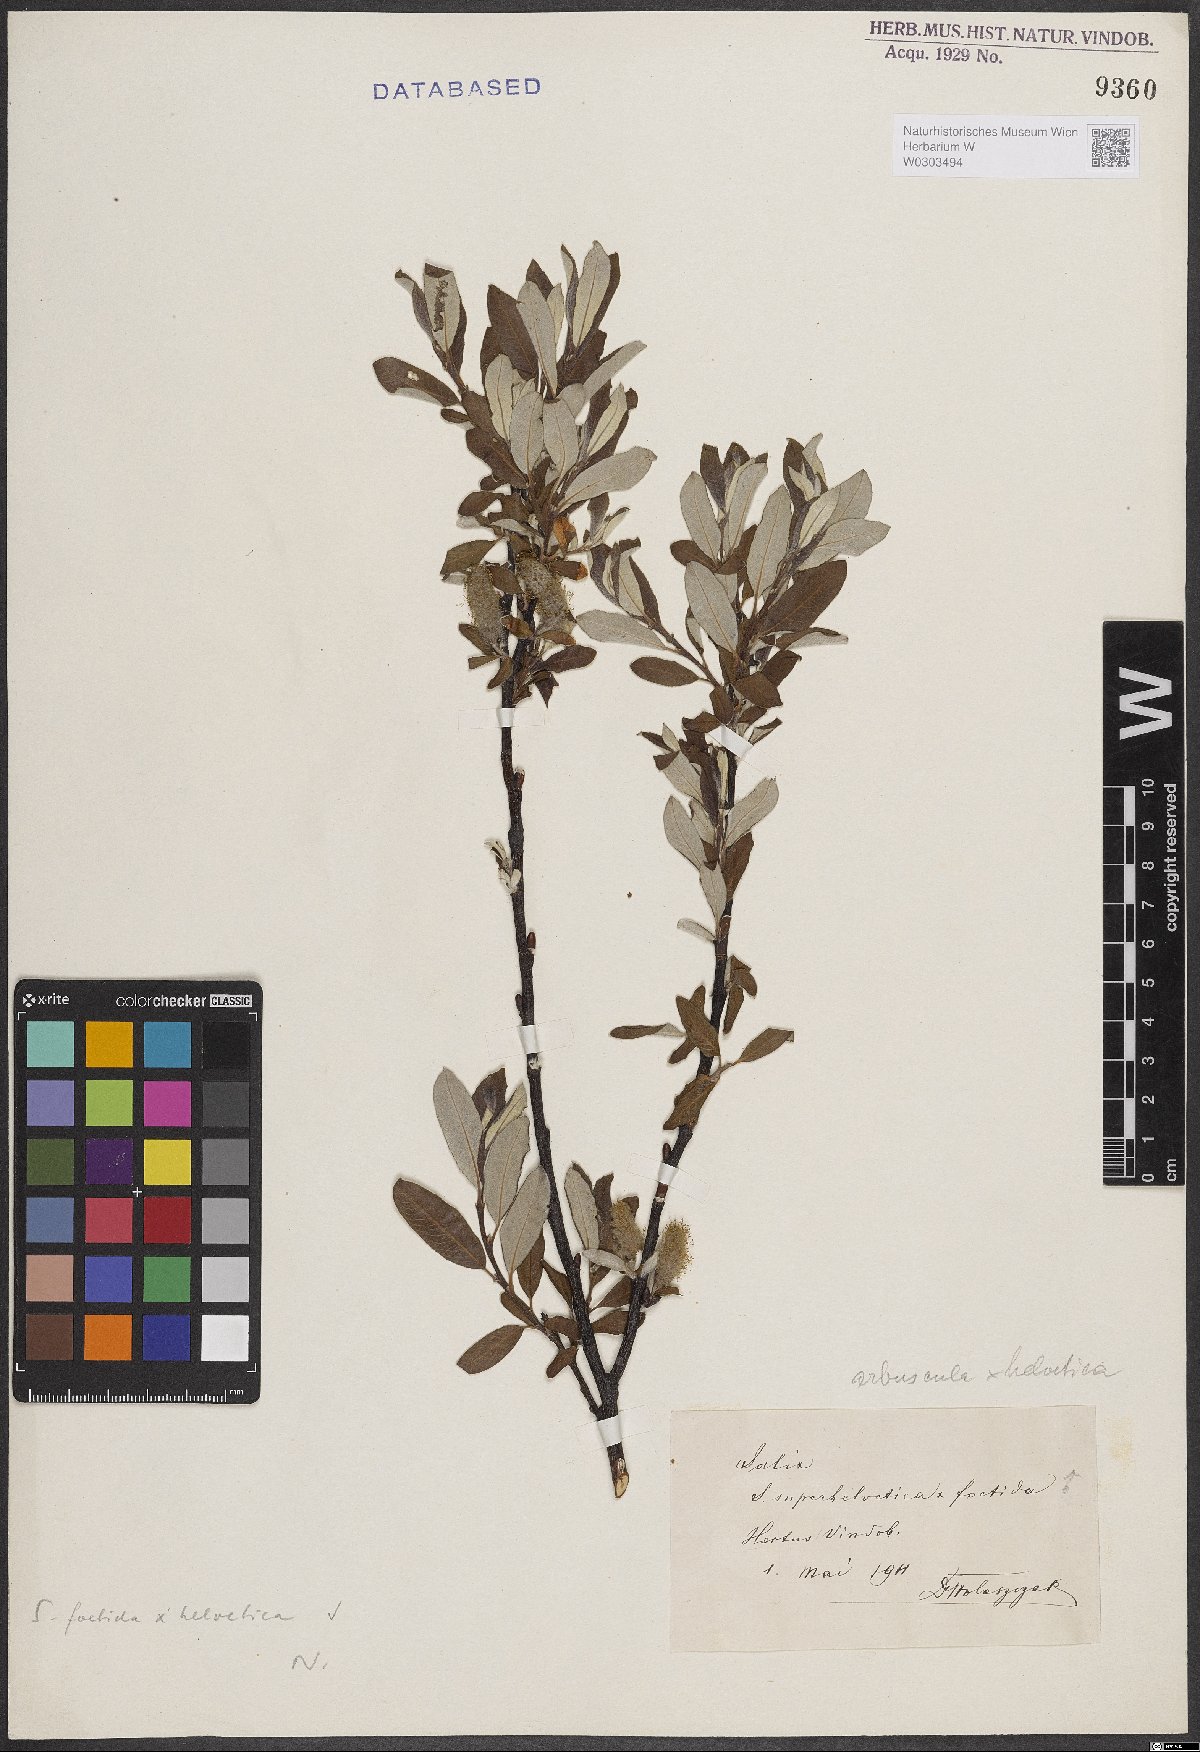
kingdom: Plantae
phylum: Tracheophyta
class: Magnoliopsida
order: Malpighiales
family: Salicaceae
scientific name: Salicaceae
